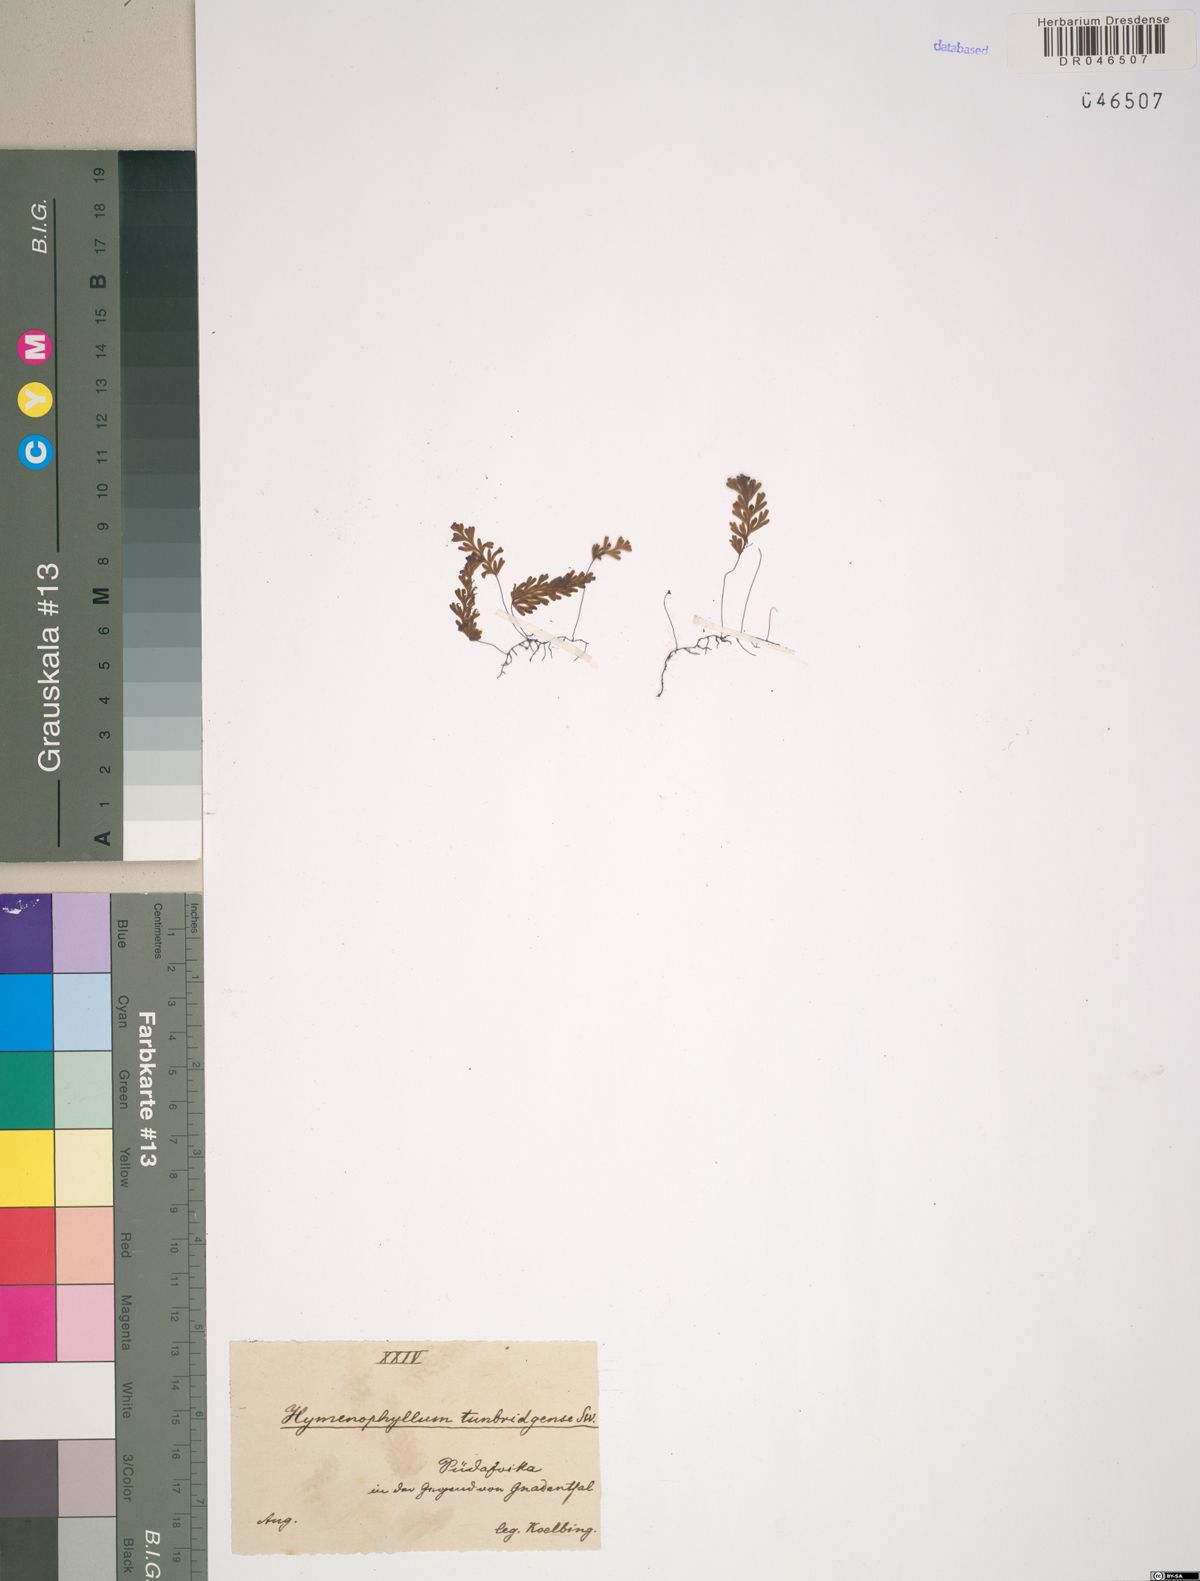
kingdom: Plantae
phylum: Tracheophyta
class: Polypodiopsida
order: Hymenophyllales
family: Hymenophyllaceae
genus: Hymenophyllum
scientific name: Hymenophyllum tunbrigense
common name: Tunbridge filmy fern
